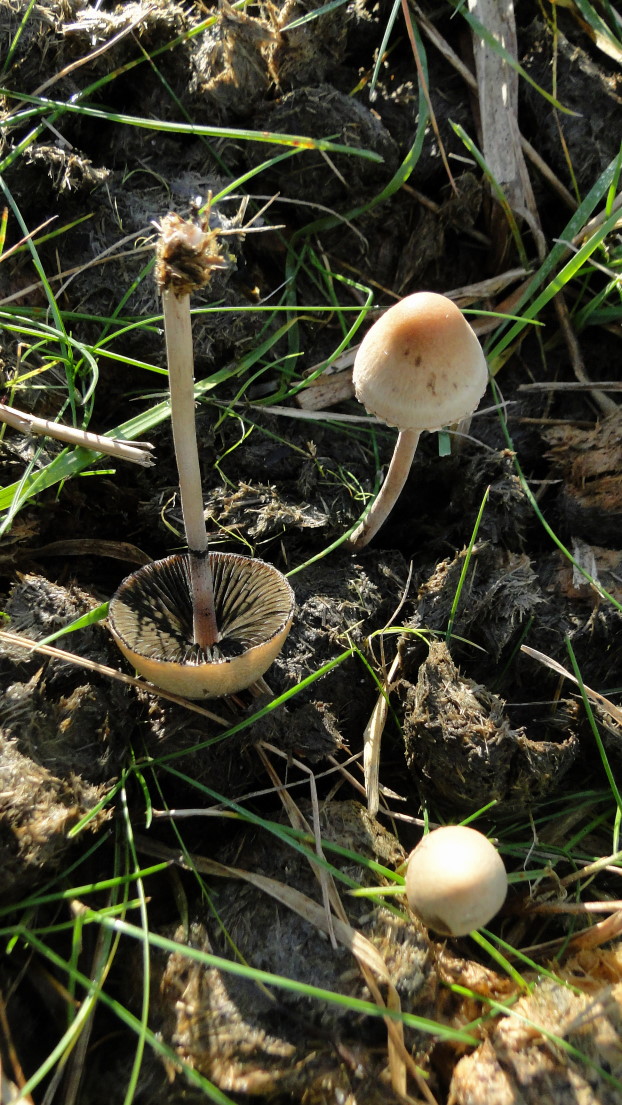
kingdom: Fungi
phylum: Basidiomycota
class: Agaricomycetes
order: Agaricales
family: Bolbitiaceae
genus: Panaeolus
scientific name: Panaeolus papilionaceus
